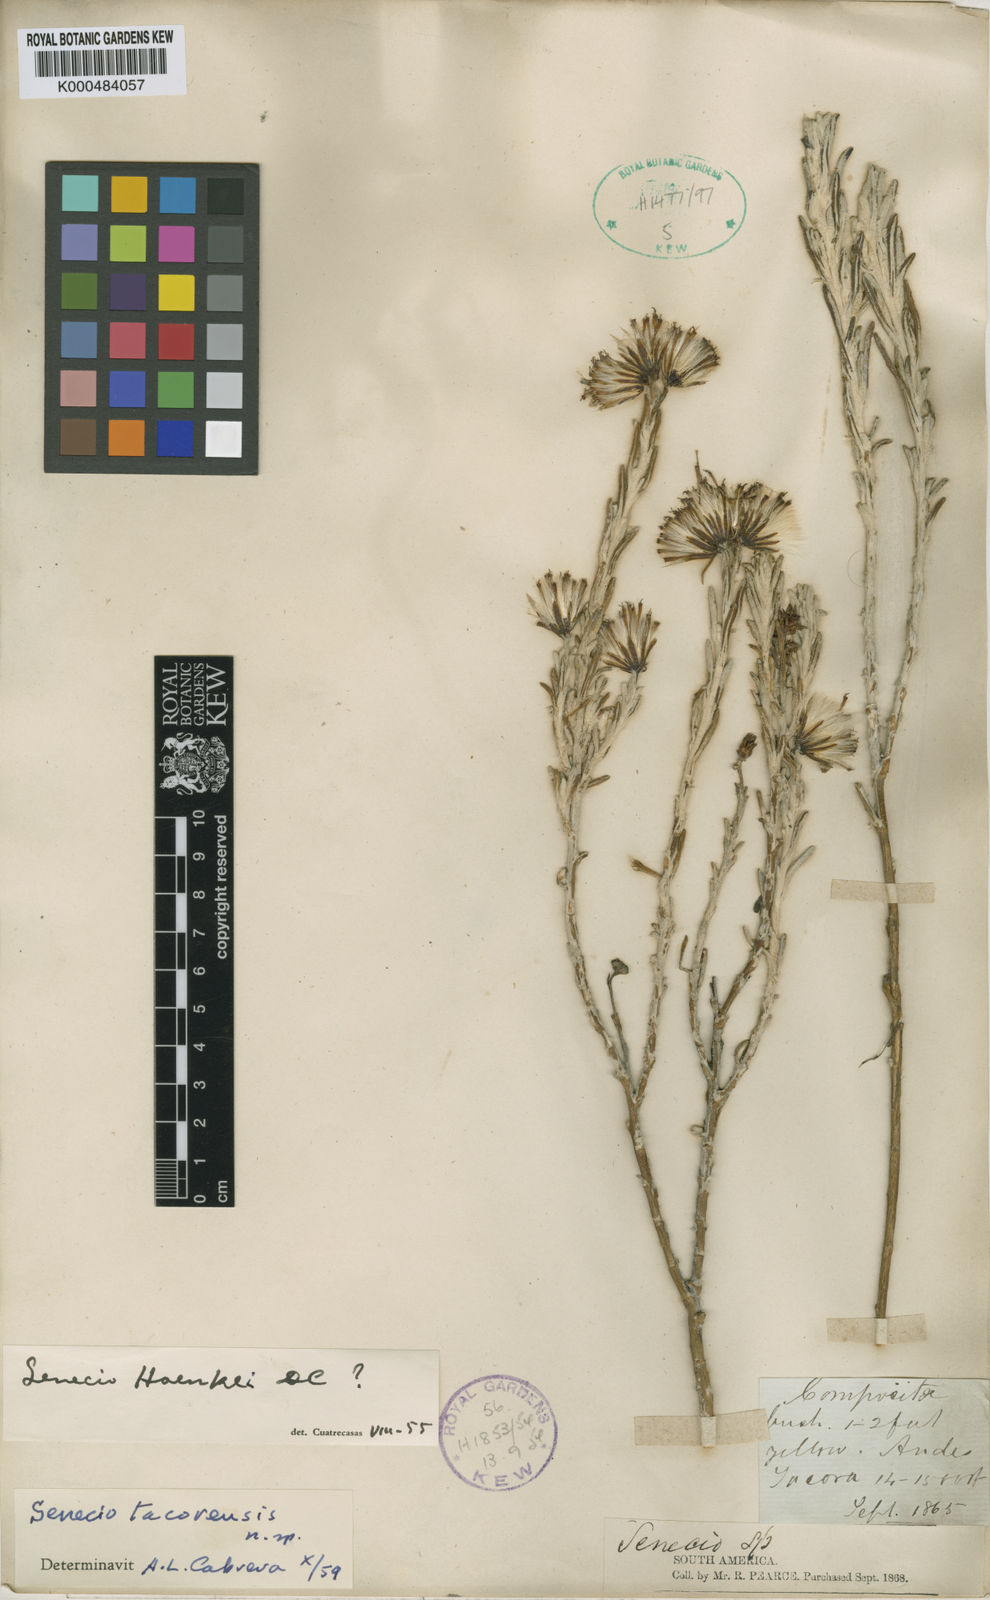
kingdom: Plantae
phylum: Tracheophyta
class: Magnoliopsida
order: Asterales
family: Asteraceae
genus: Senecio
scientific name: Senecio tacorensis
